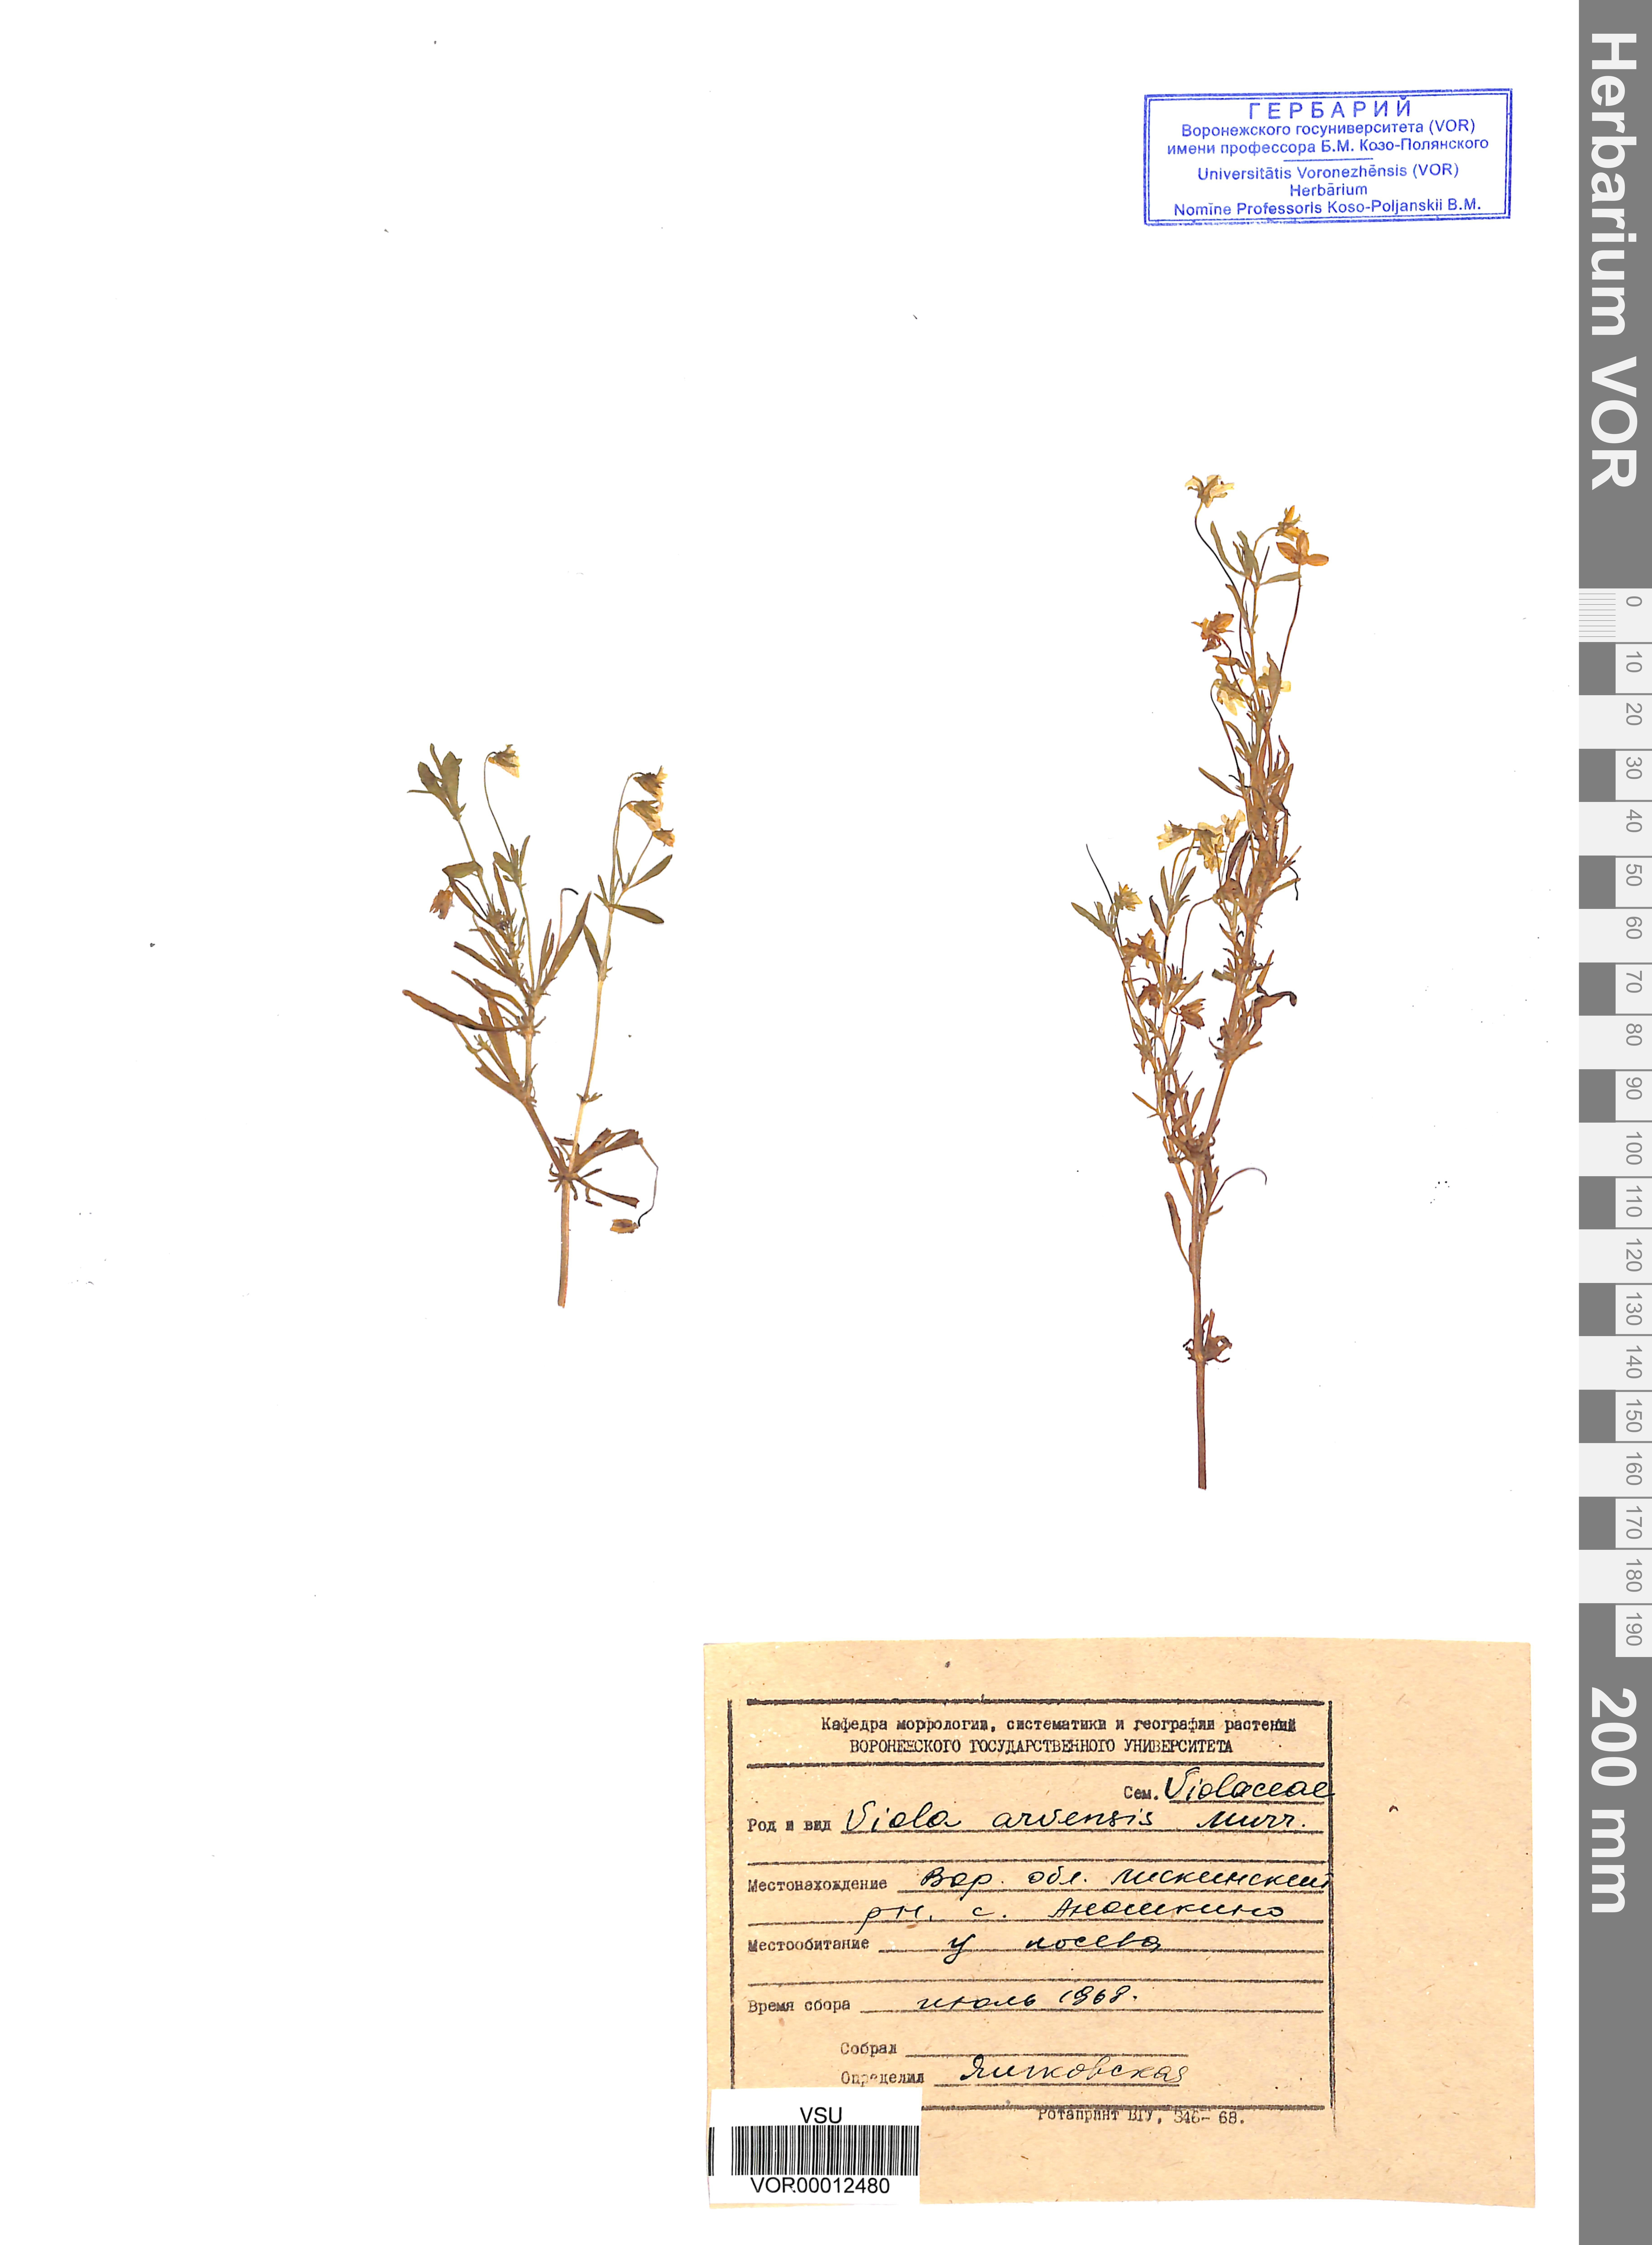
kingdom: Plantae
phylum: Tracheophyta
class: Magnoliopsida
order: Malpighiales
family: Violaceae
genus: Viola
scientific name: Viola arvensis
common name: Field pansy
